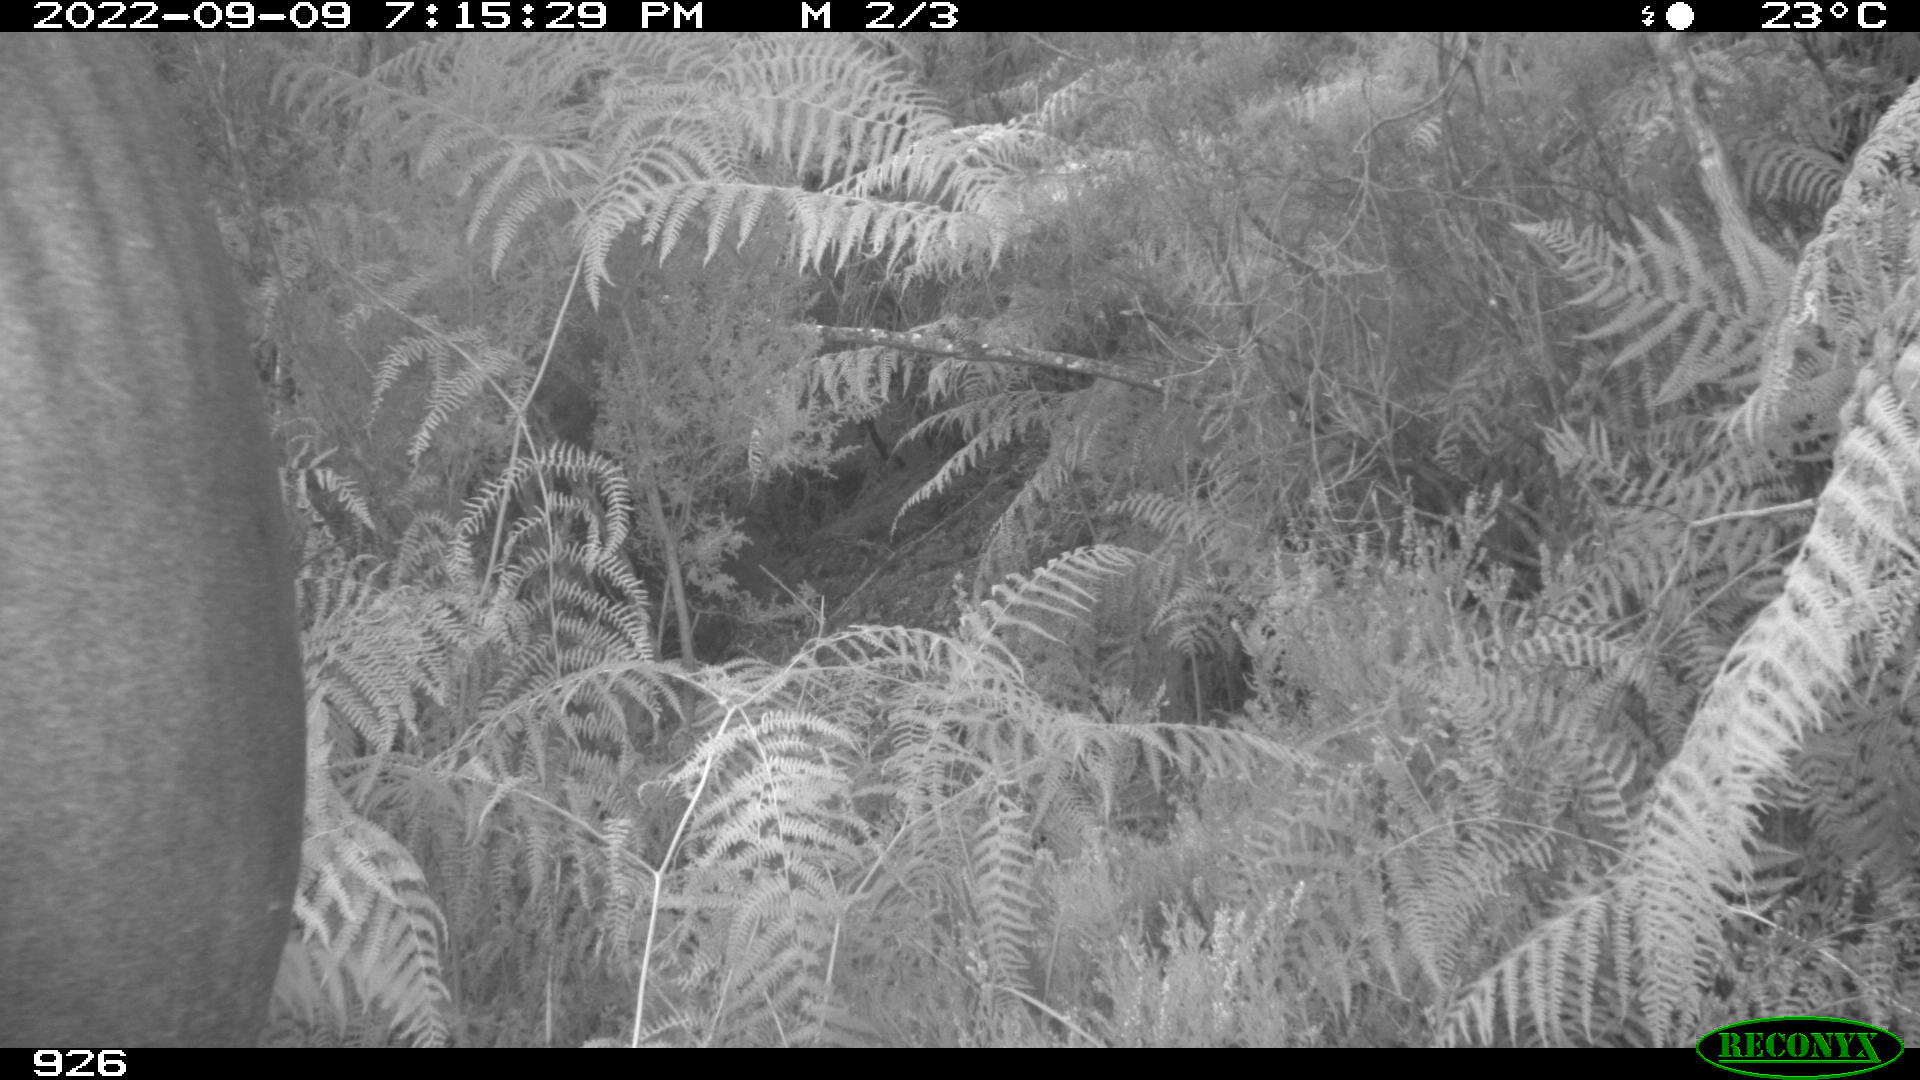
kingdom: Animalia
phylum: Chordata
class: Mammalia
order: Perissodactyla
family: Equidae
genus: Equus
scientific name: Equus caballus
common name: Horse
